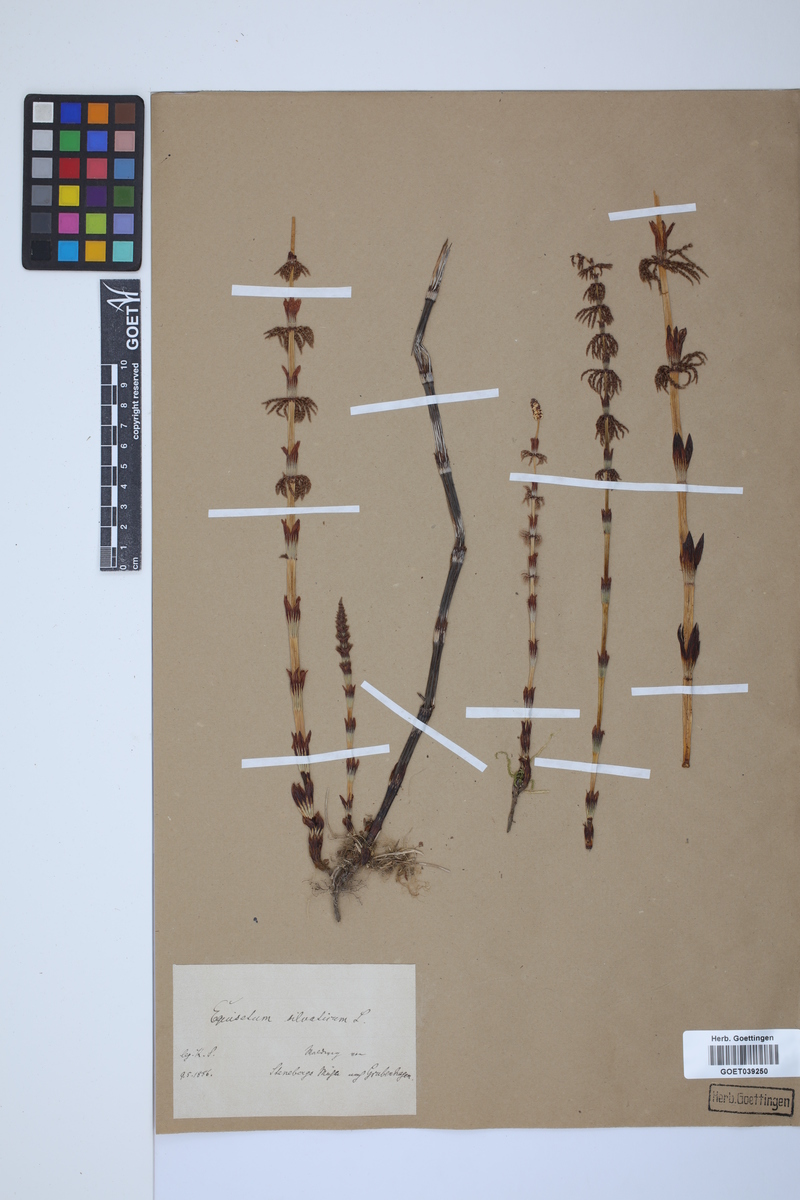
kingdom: Plantae
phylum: Tracheophyta
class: Polypodiopsida
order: Equisetales
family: Equisetaceae
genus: Equisetum
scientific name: Equisetum sylvaticum
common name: Wood horsetail
